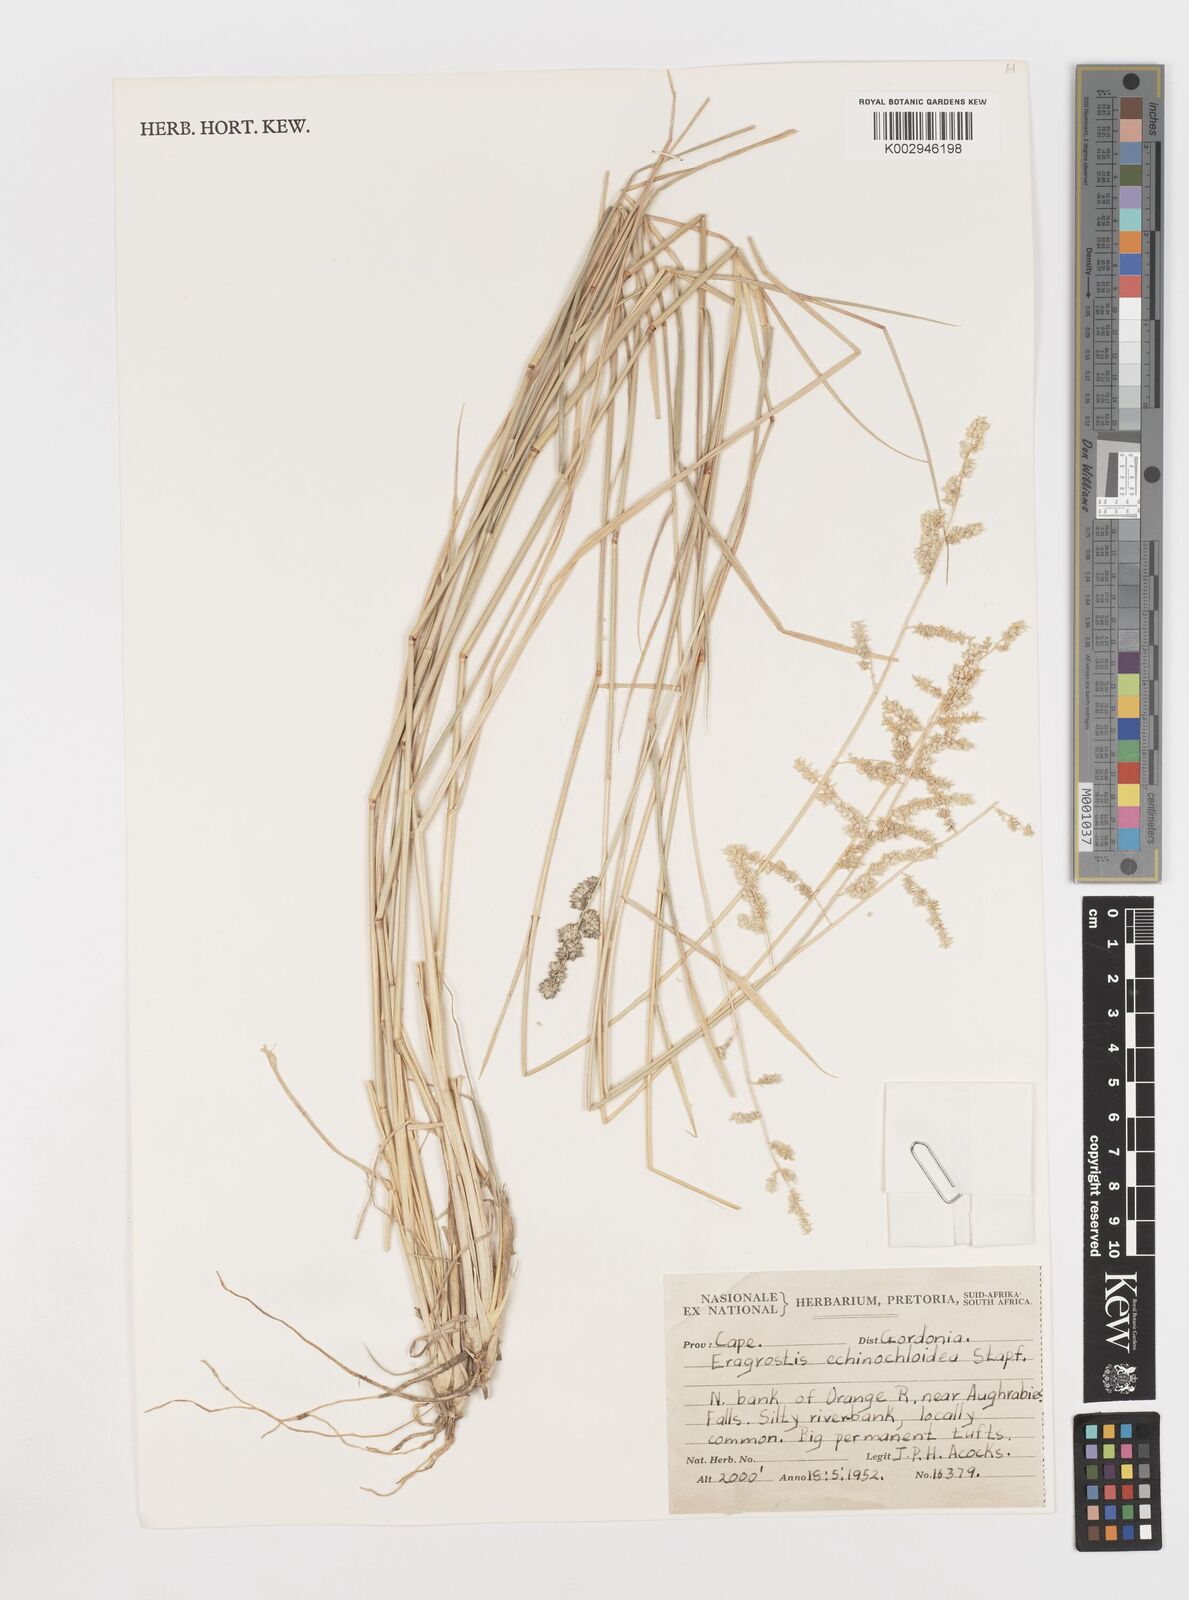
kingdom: Plantae
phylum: Tracheophyta
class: Liliopsida
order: Poales
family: Poaceae
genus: Eragrostis
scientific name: Eragrostis echinochloidea
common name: African lovegrass
